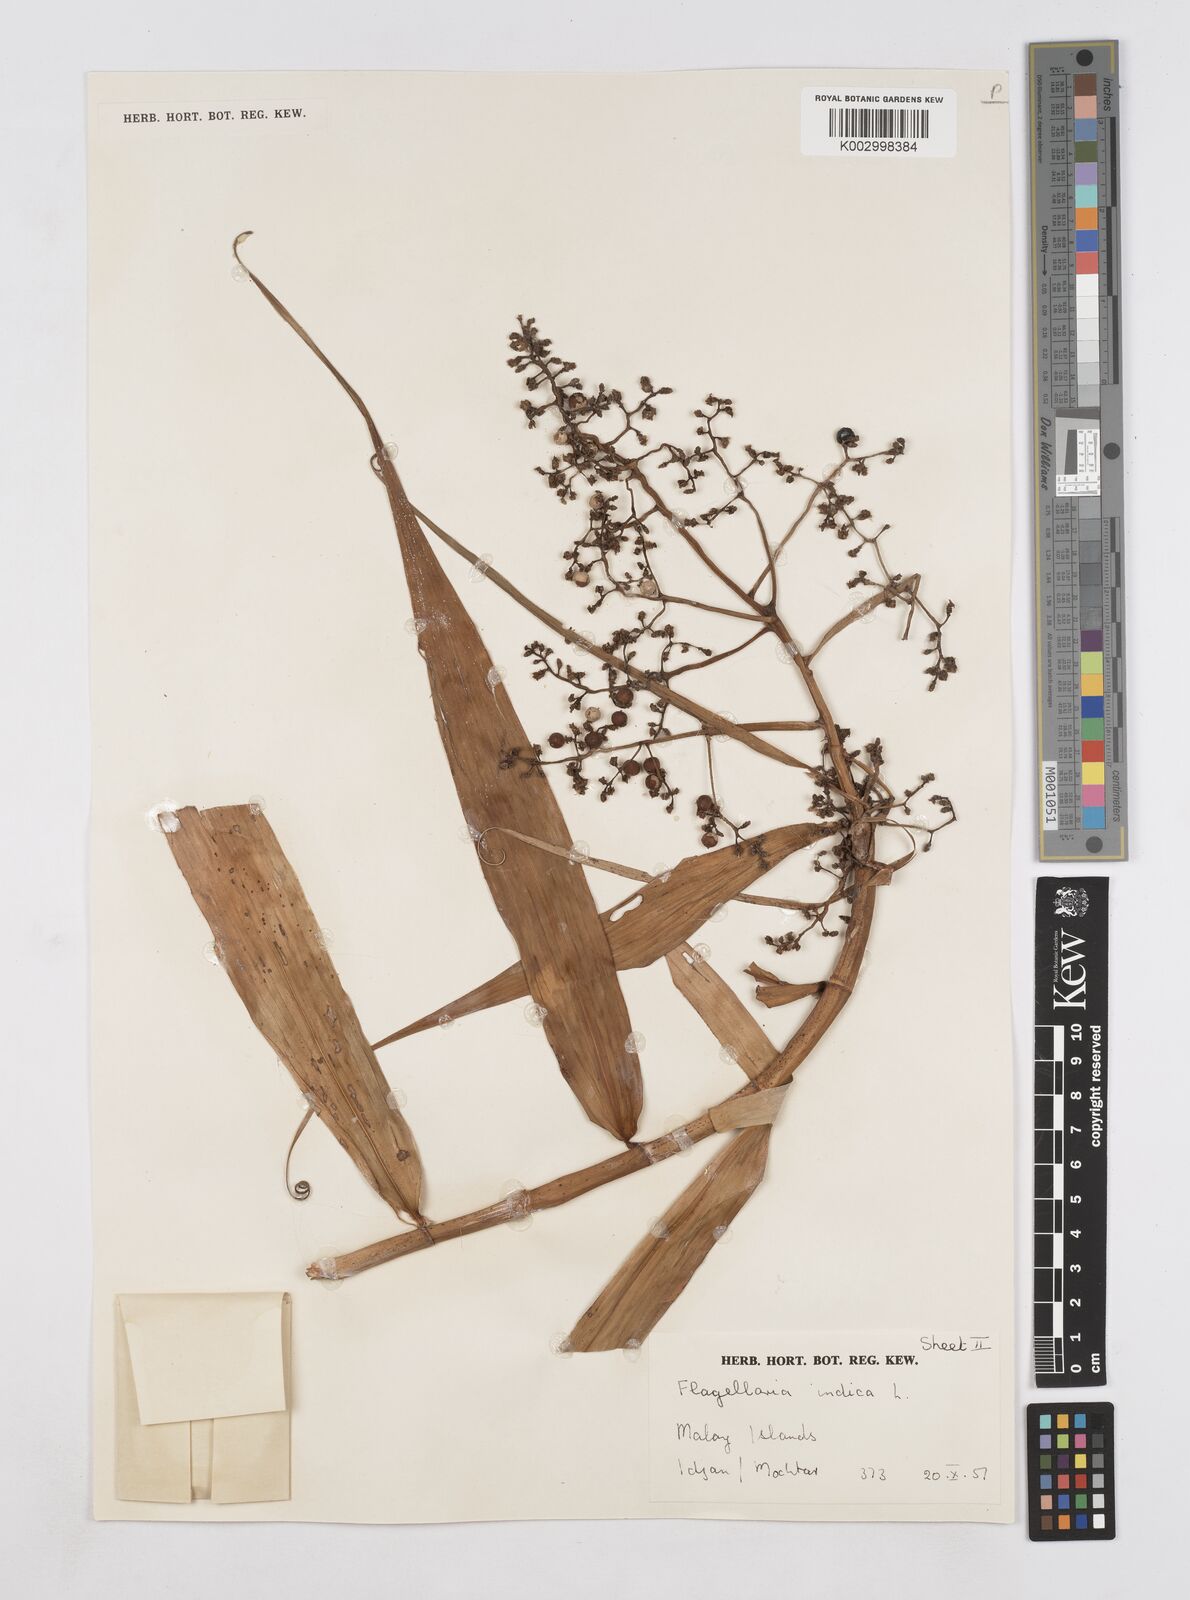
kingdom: Plantae
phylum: Tracheophyta
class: Liliopsida
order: Poales
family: Flagellariaceae
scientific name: Flagellariaceae
